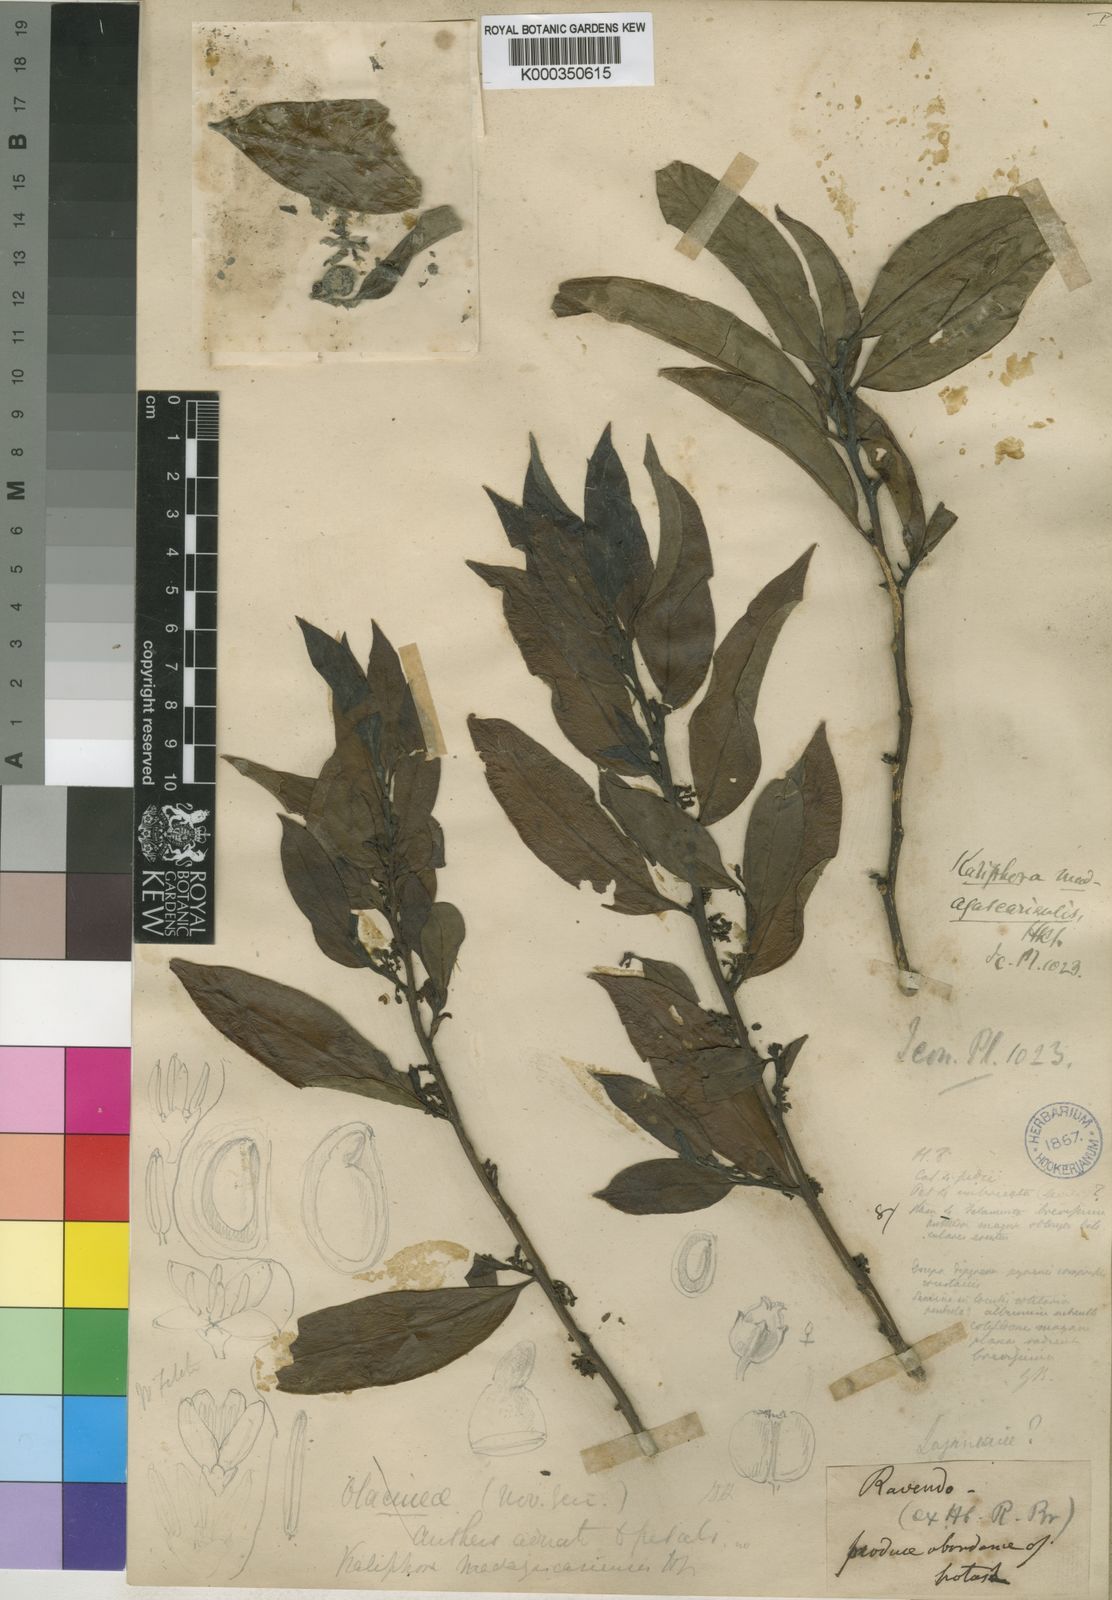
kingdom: Plantae
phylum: Tracheophyta
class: Magnoliopsida
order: Solanales
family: Montiniaceae
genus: Kaliphora
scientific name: Kaliphora madagascariensis
